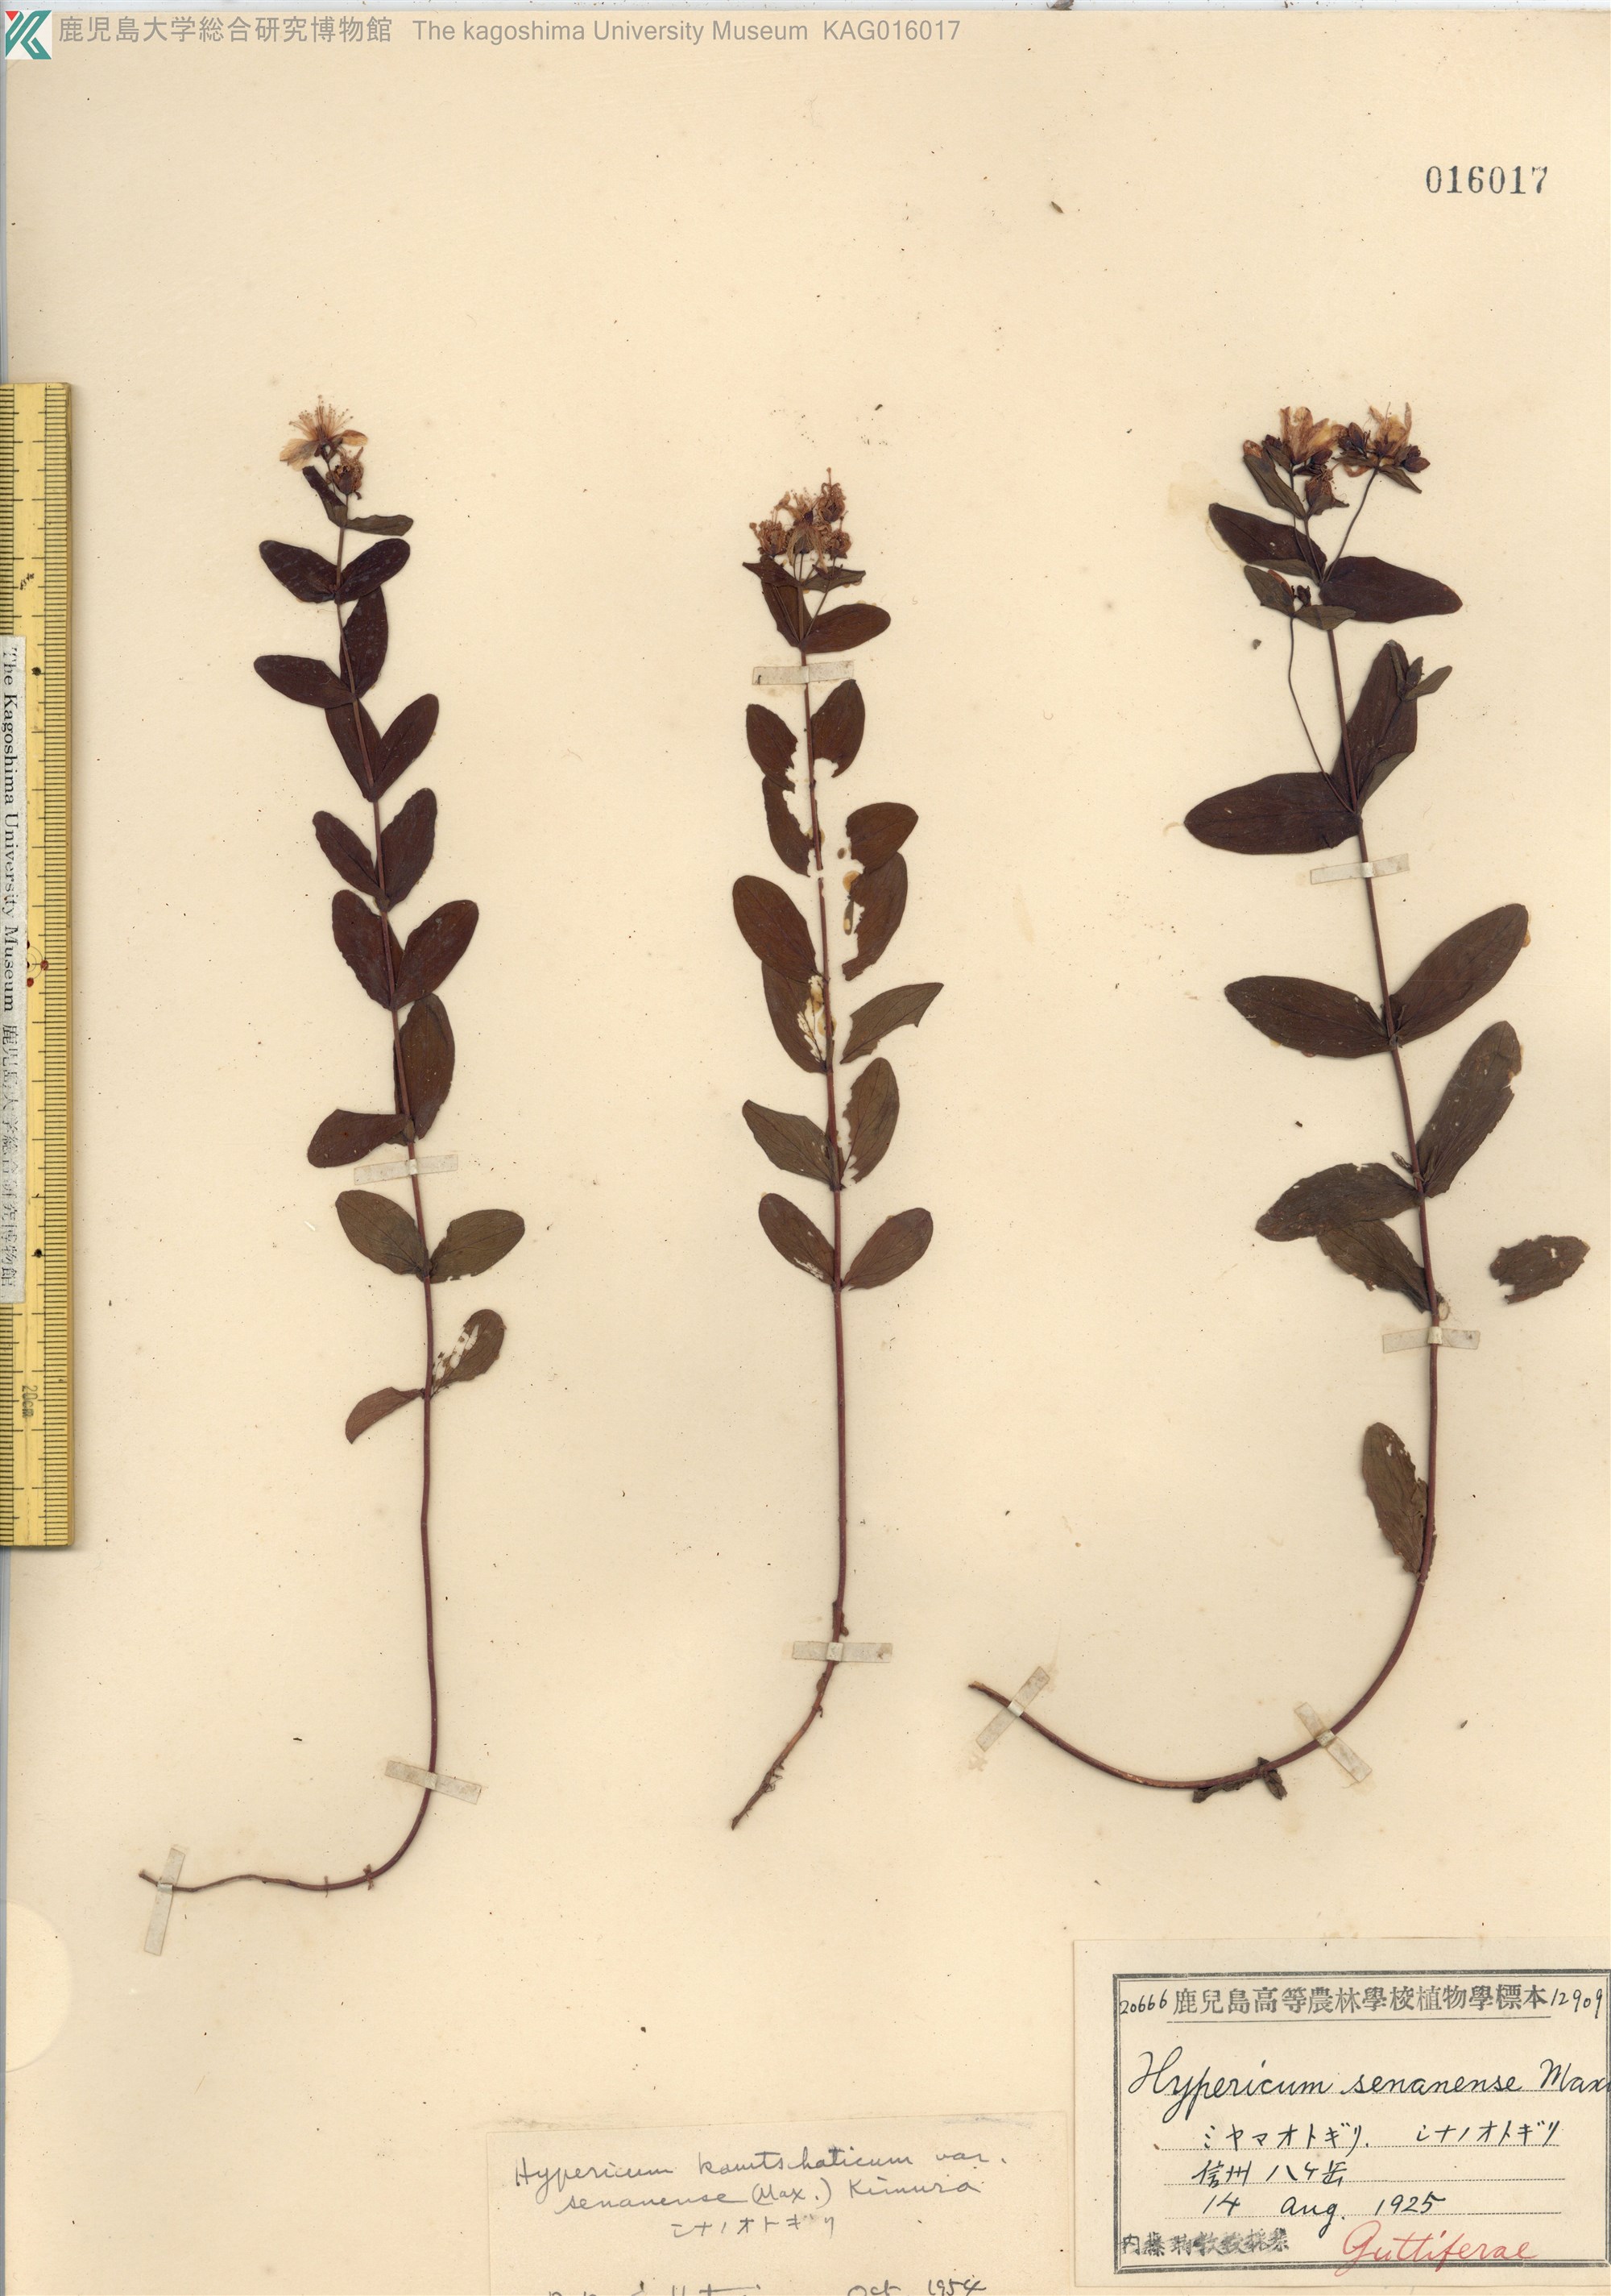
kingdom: Plantae
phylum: Tracheophyta
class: Magnoliopsida
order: Malpighiales
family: Hypericaceae
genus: Hypericum
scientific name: Hypericum kamtschaticum
